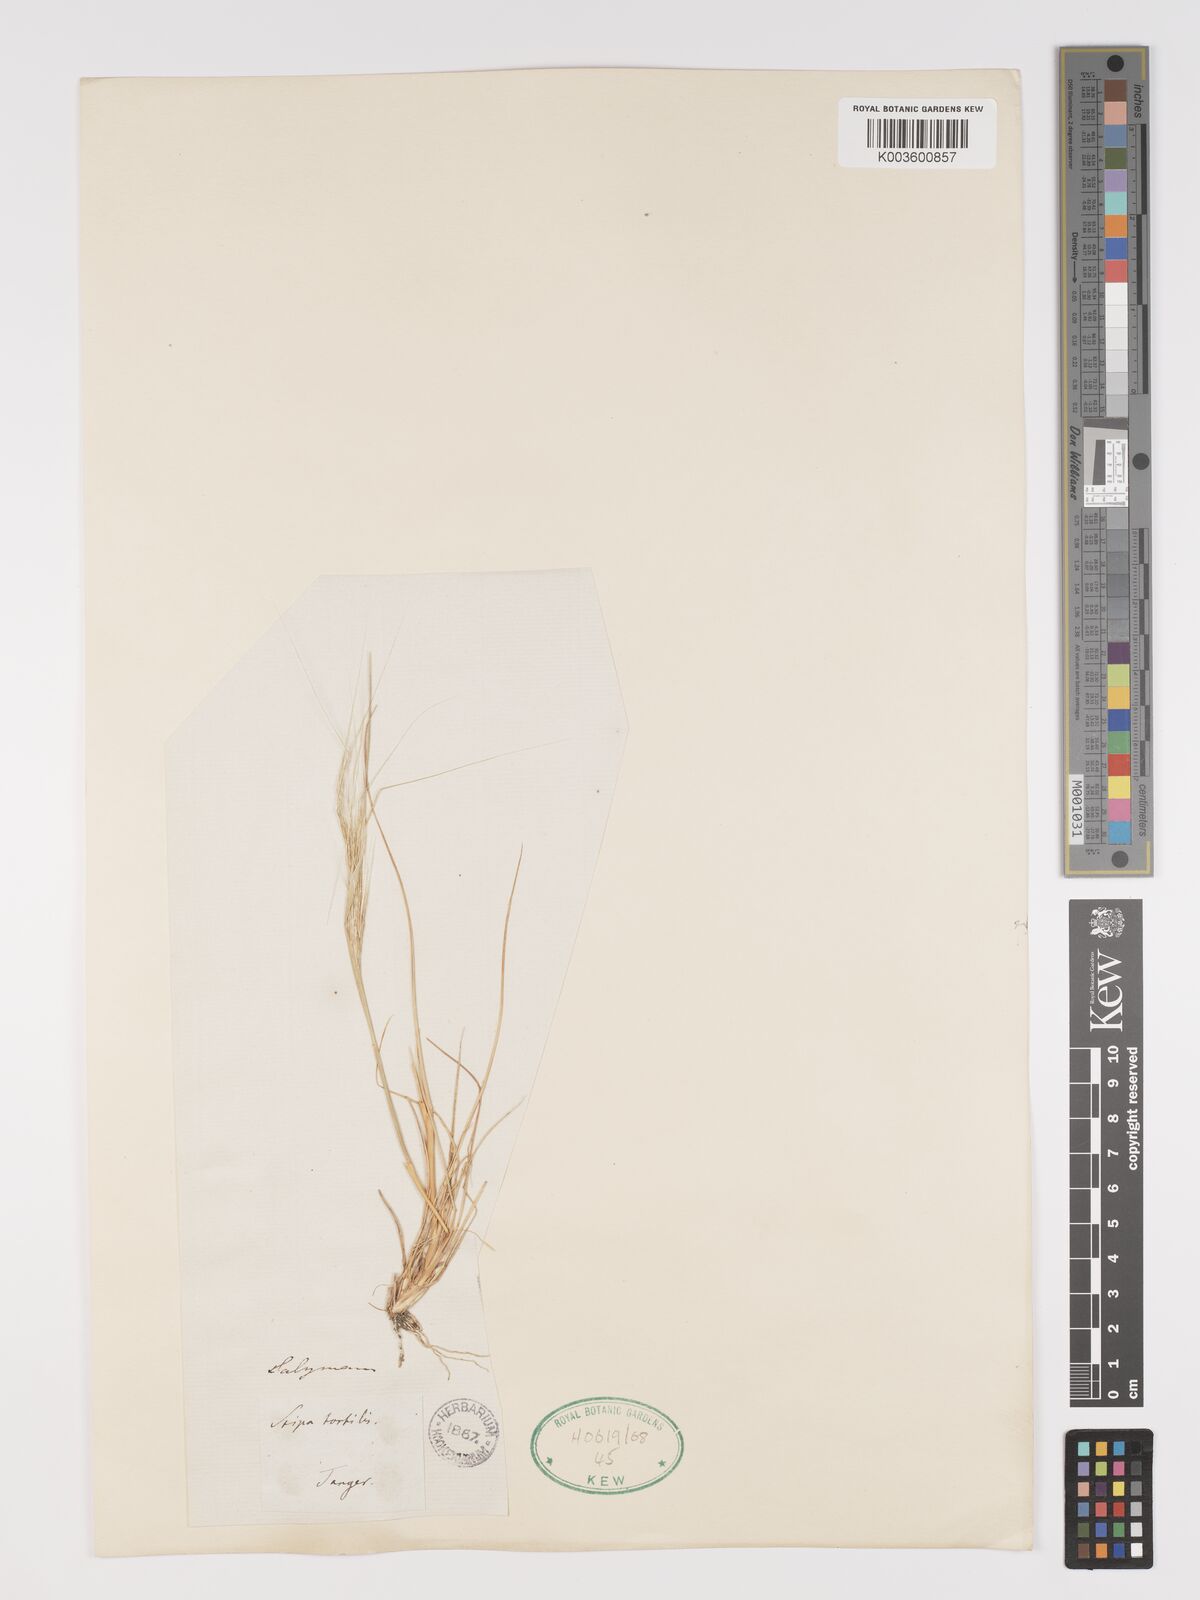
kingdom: Plantae
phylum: Tracheophyta
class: Liliopsida
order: Poales
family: Poaceae
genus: Stipellula
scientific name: Stipellula capensis
